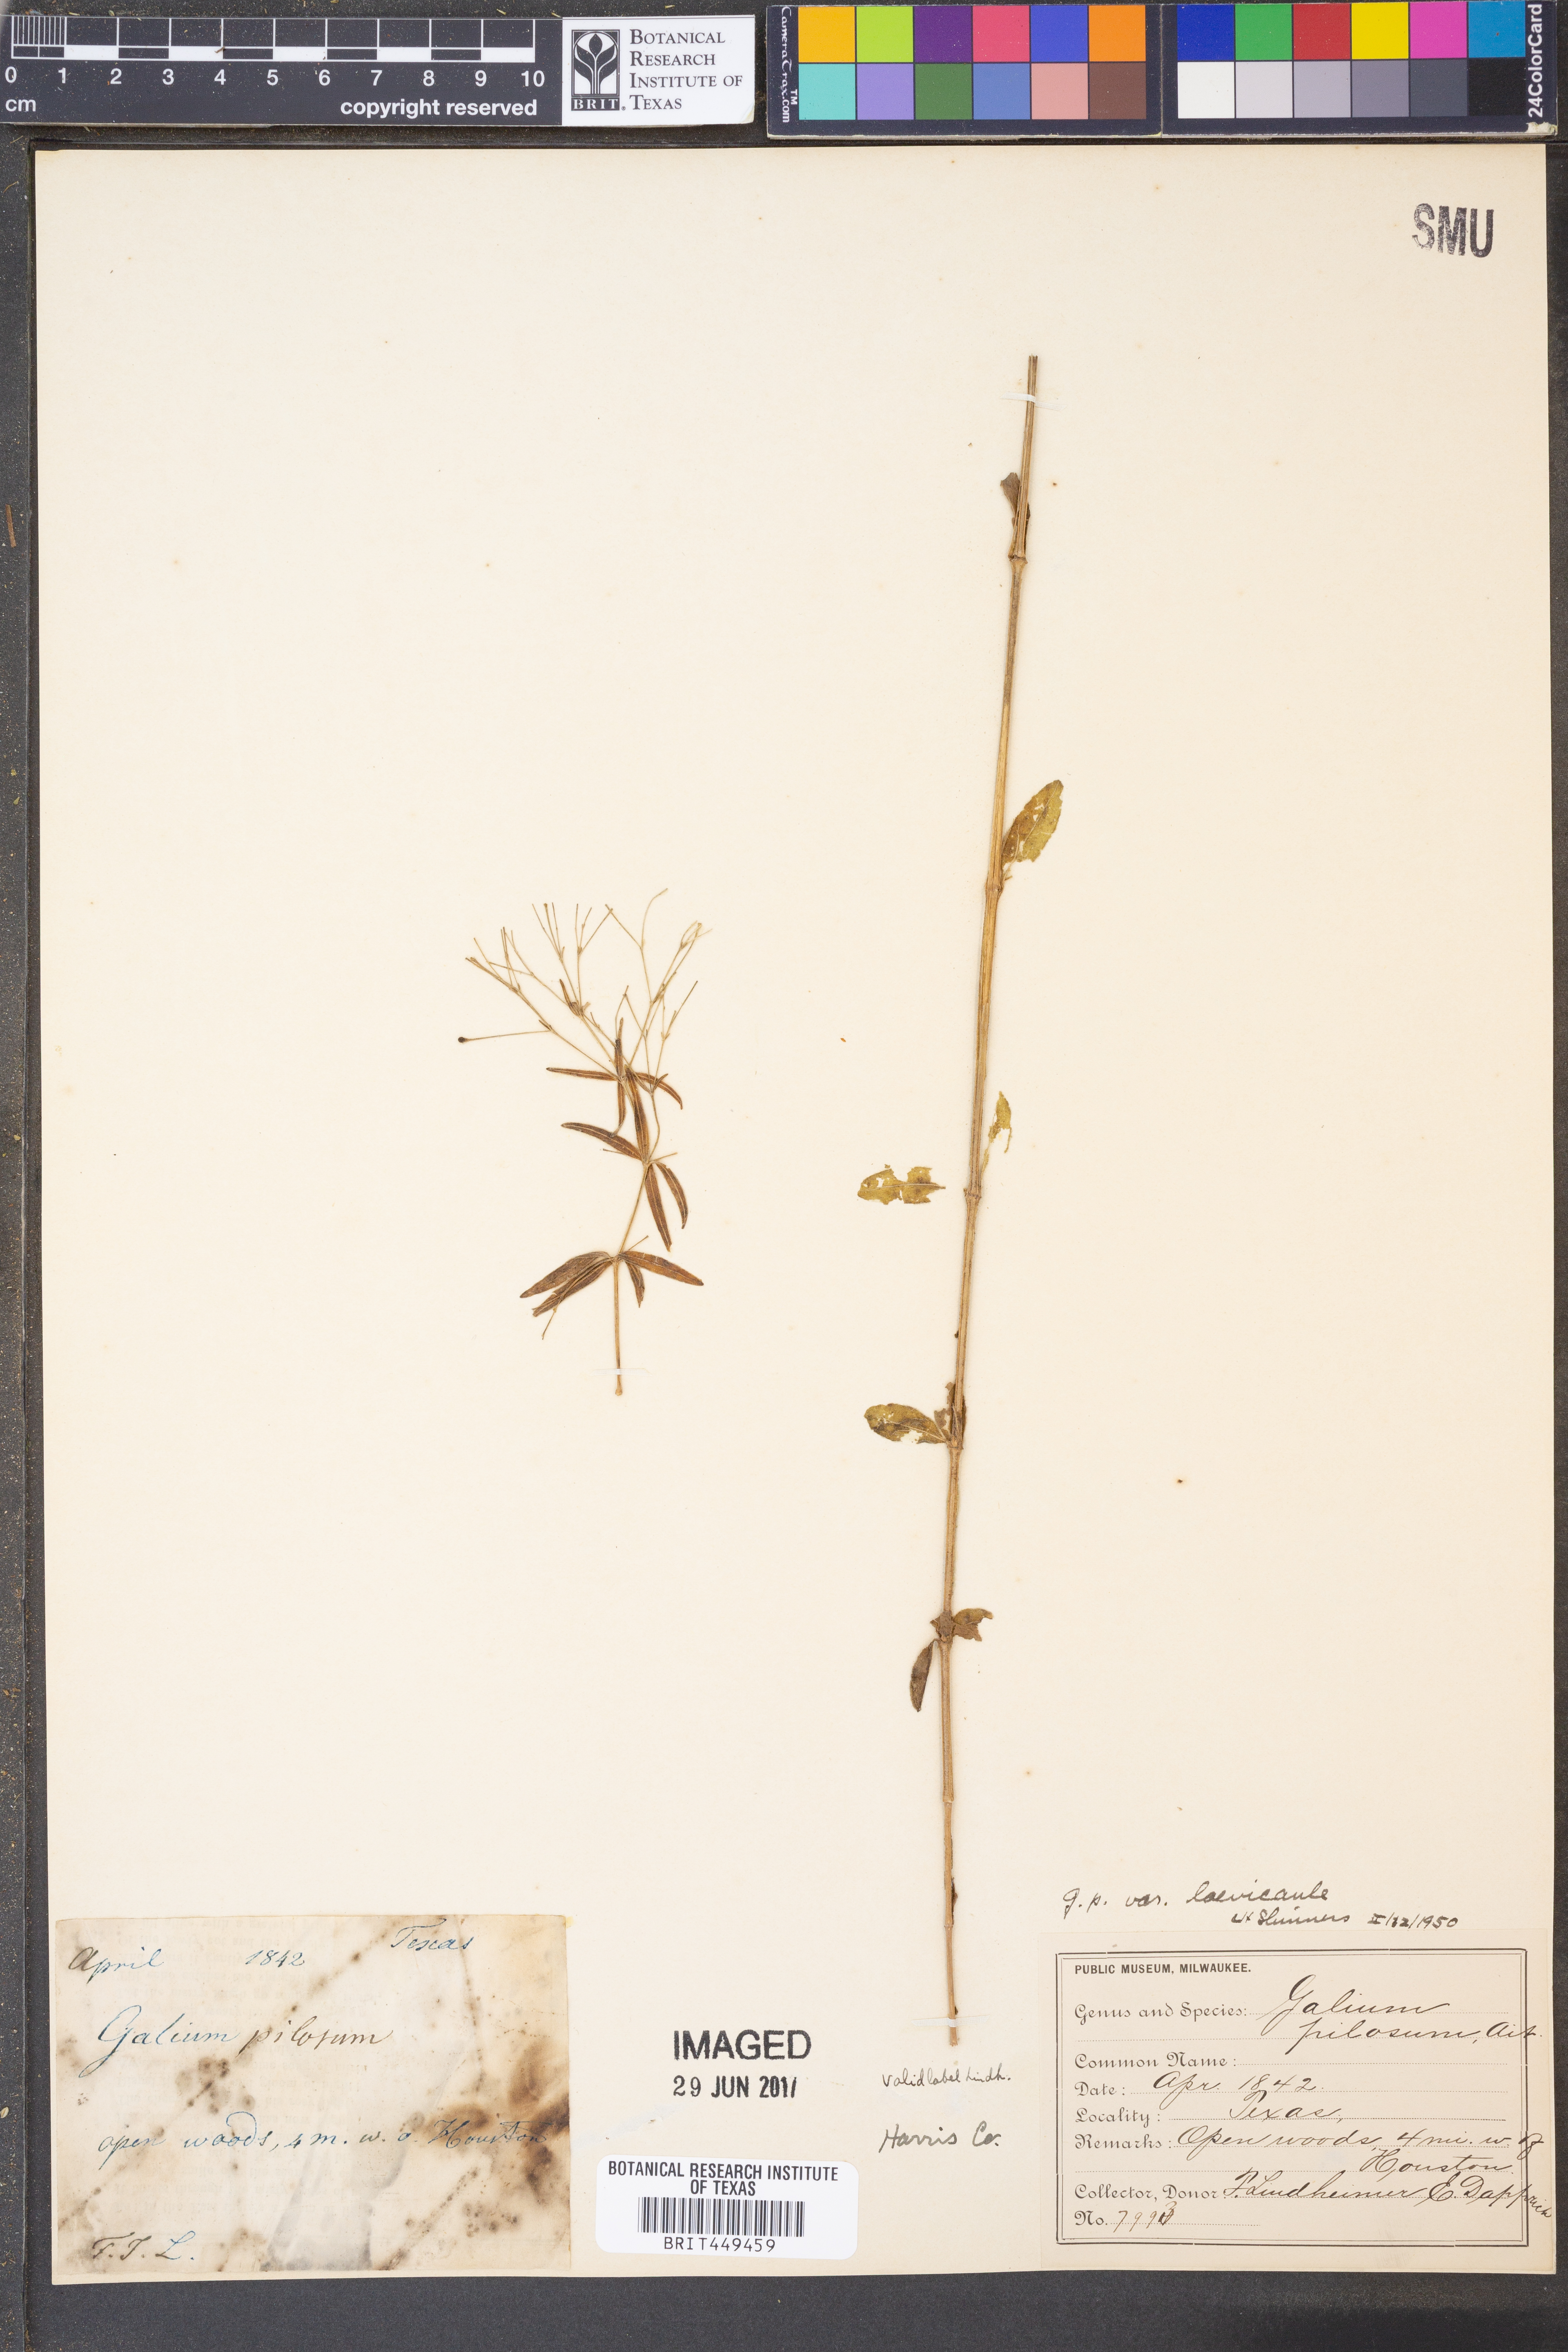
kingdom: Plantae
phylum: Tracheophyta
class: Magnoliopsida
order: Gentianales
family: Rubiaceae
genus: Galium
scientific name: Galium orizabense
